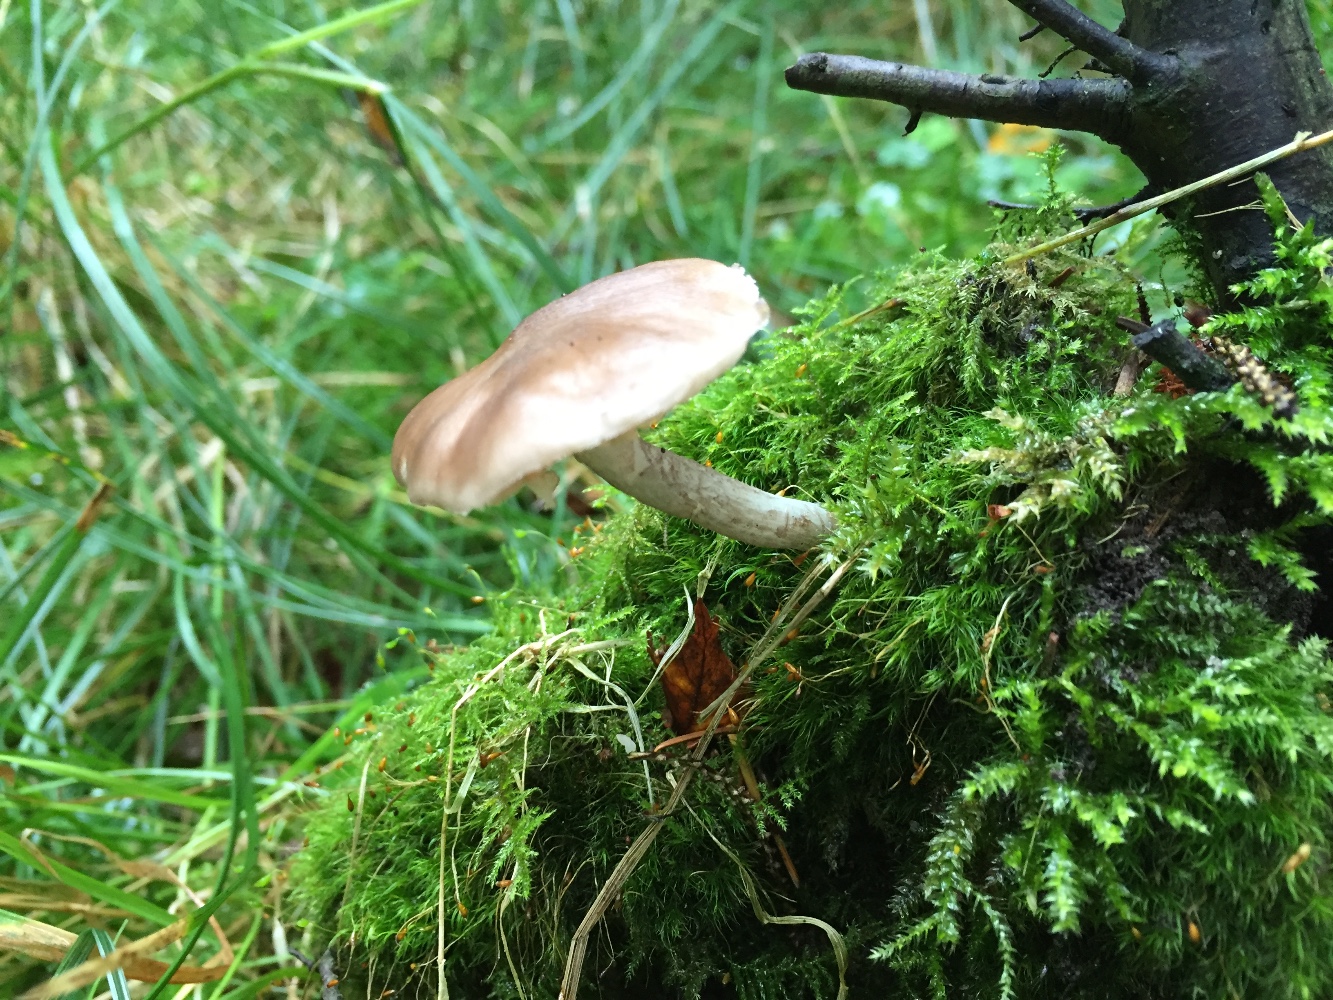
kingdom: Fungi
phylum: Basidiomycota
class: Agaricomycetes
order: Agaricales
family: Pluteaceae
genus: Pluteus
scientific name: Pluteus cervinus
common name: sodfarvet skærmhat
